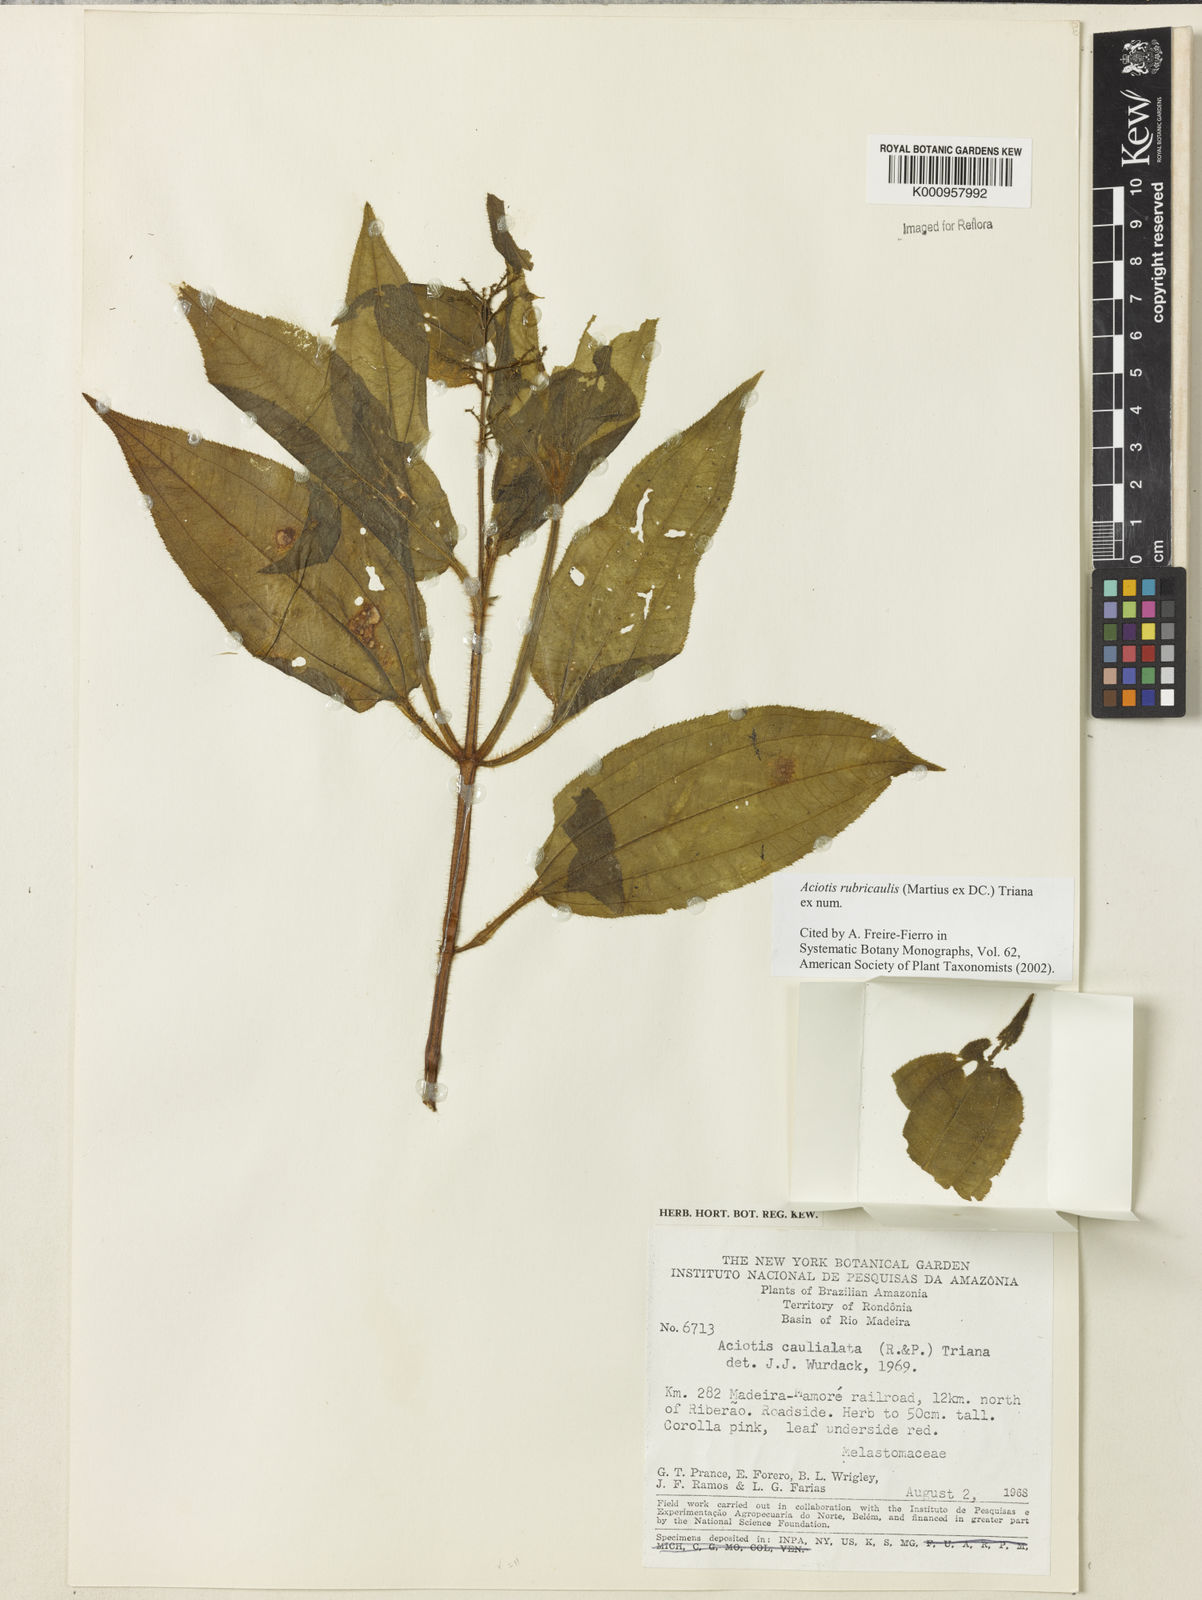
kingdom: Plantae
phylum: Tracheophyta
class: Magnoliopsida
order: Myrtales
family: Melastomataceae
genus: Aciotis
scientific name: Aciotis rubricaulis
